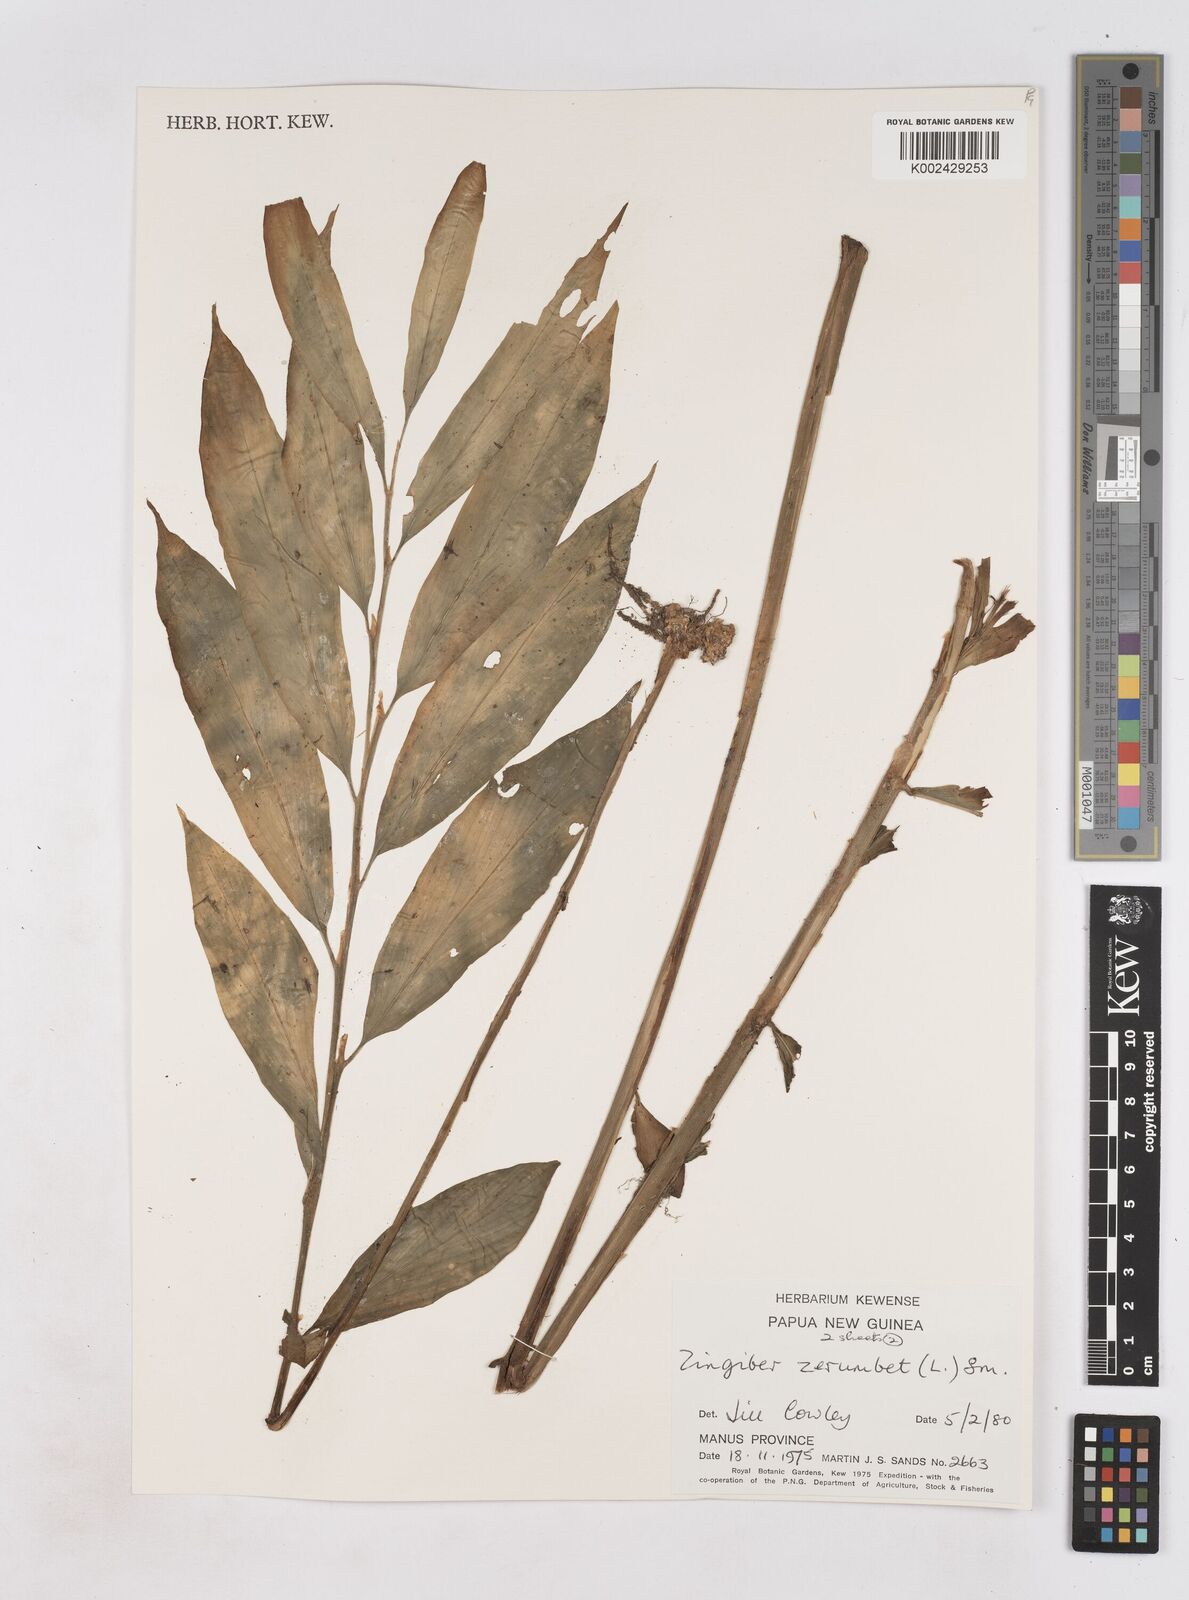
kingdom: Plantae
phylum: Tracheophyta
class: Liliopsida
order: Zingiberales
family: Zingiberaceae
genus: Zingiber
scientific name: Zingiber zerumbet
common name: Bitter ginger
